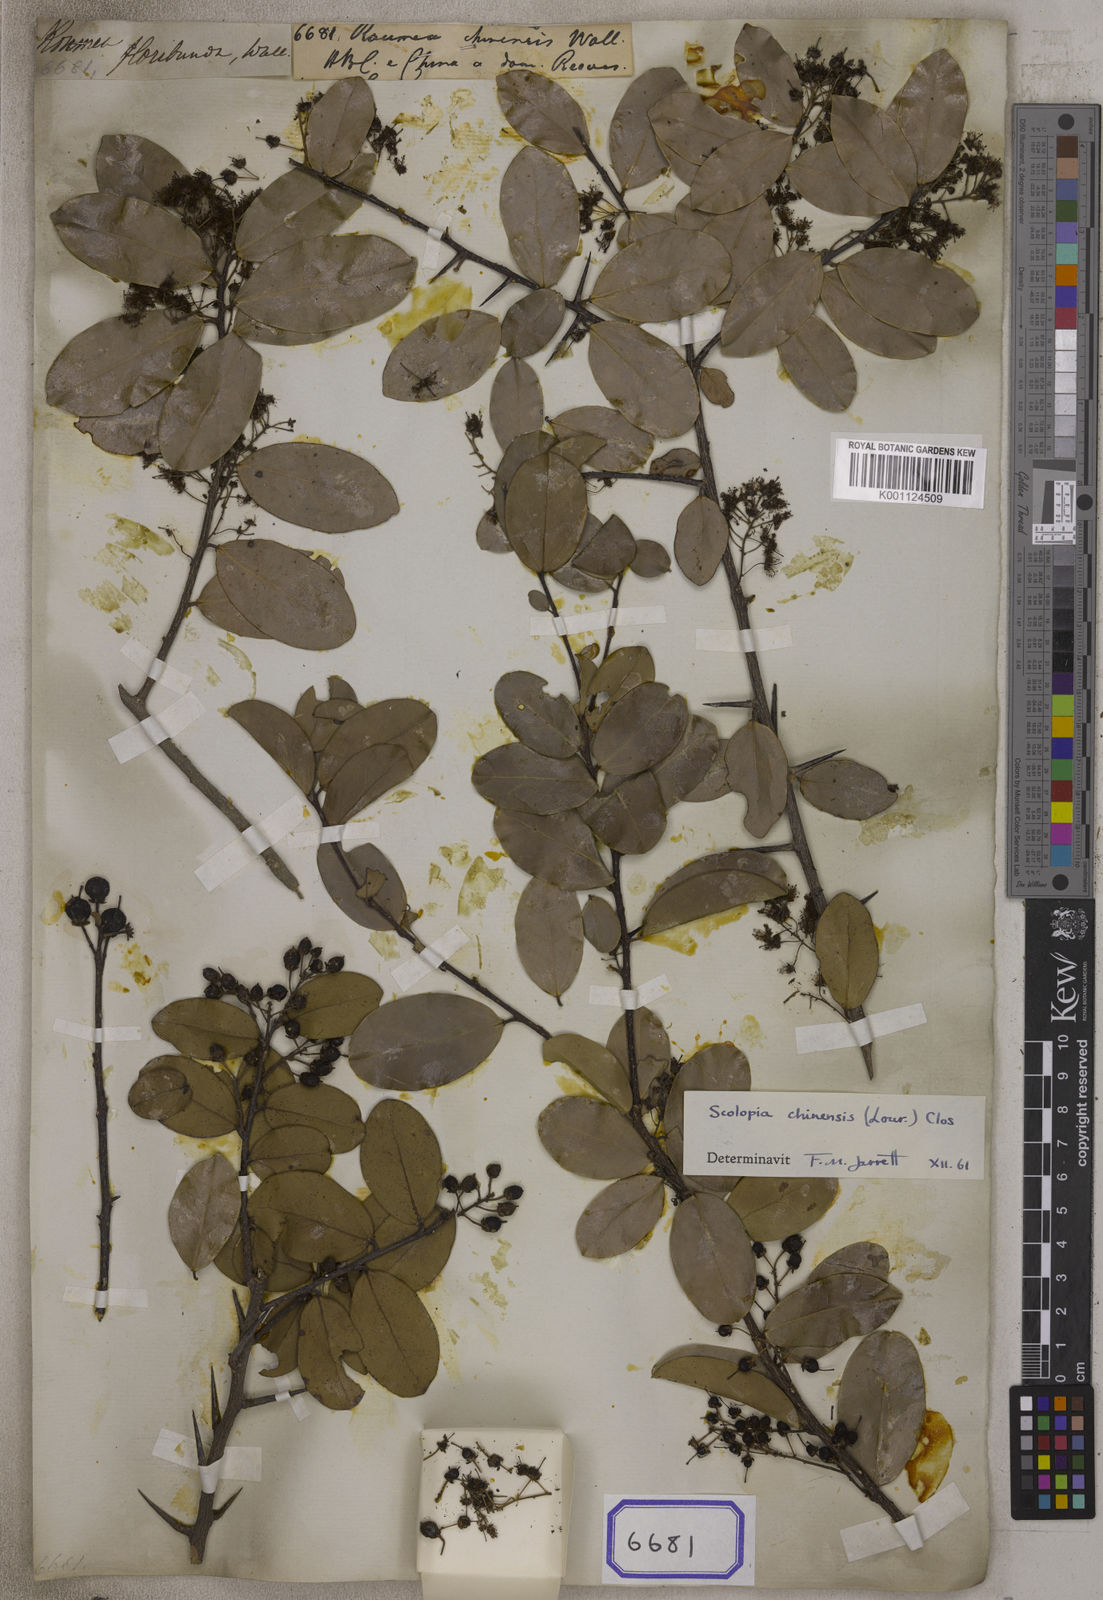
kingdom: Animalia
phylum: Arthropoda
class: Insecta
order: Orthoptera
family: Phalangopsidae
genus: Rumea
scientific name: Rumea
